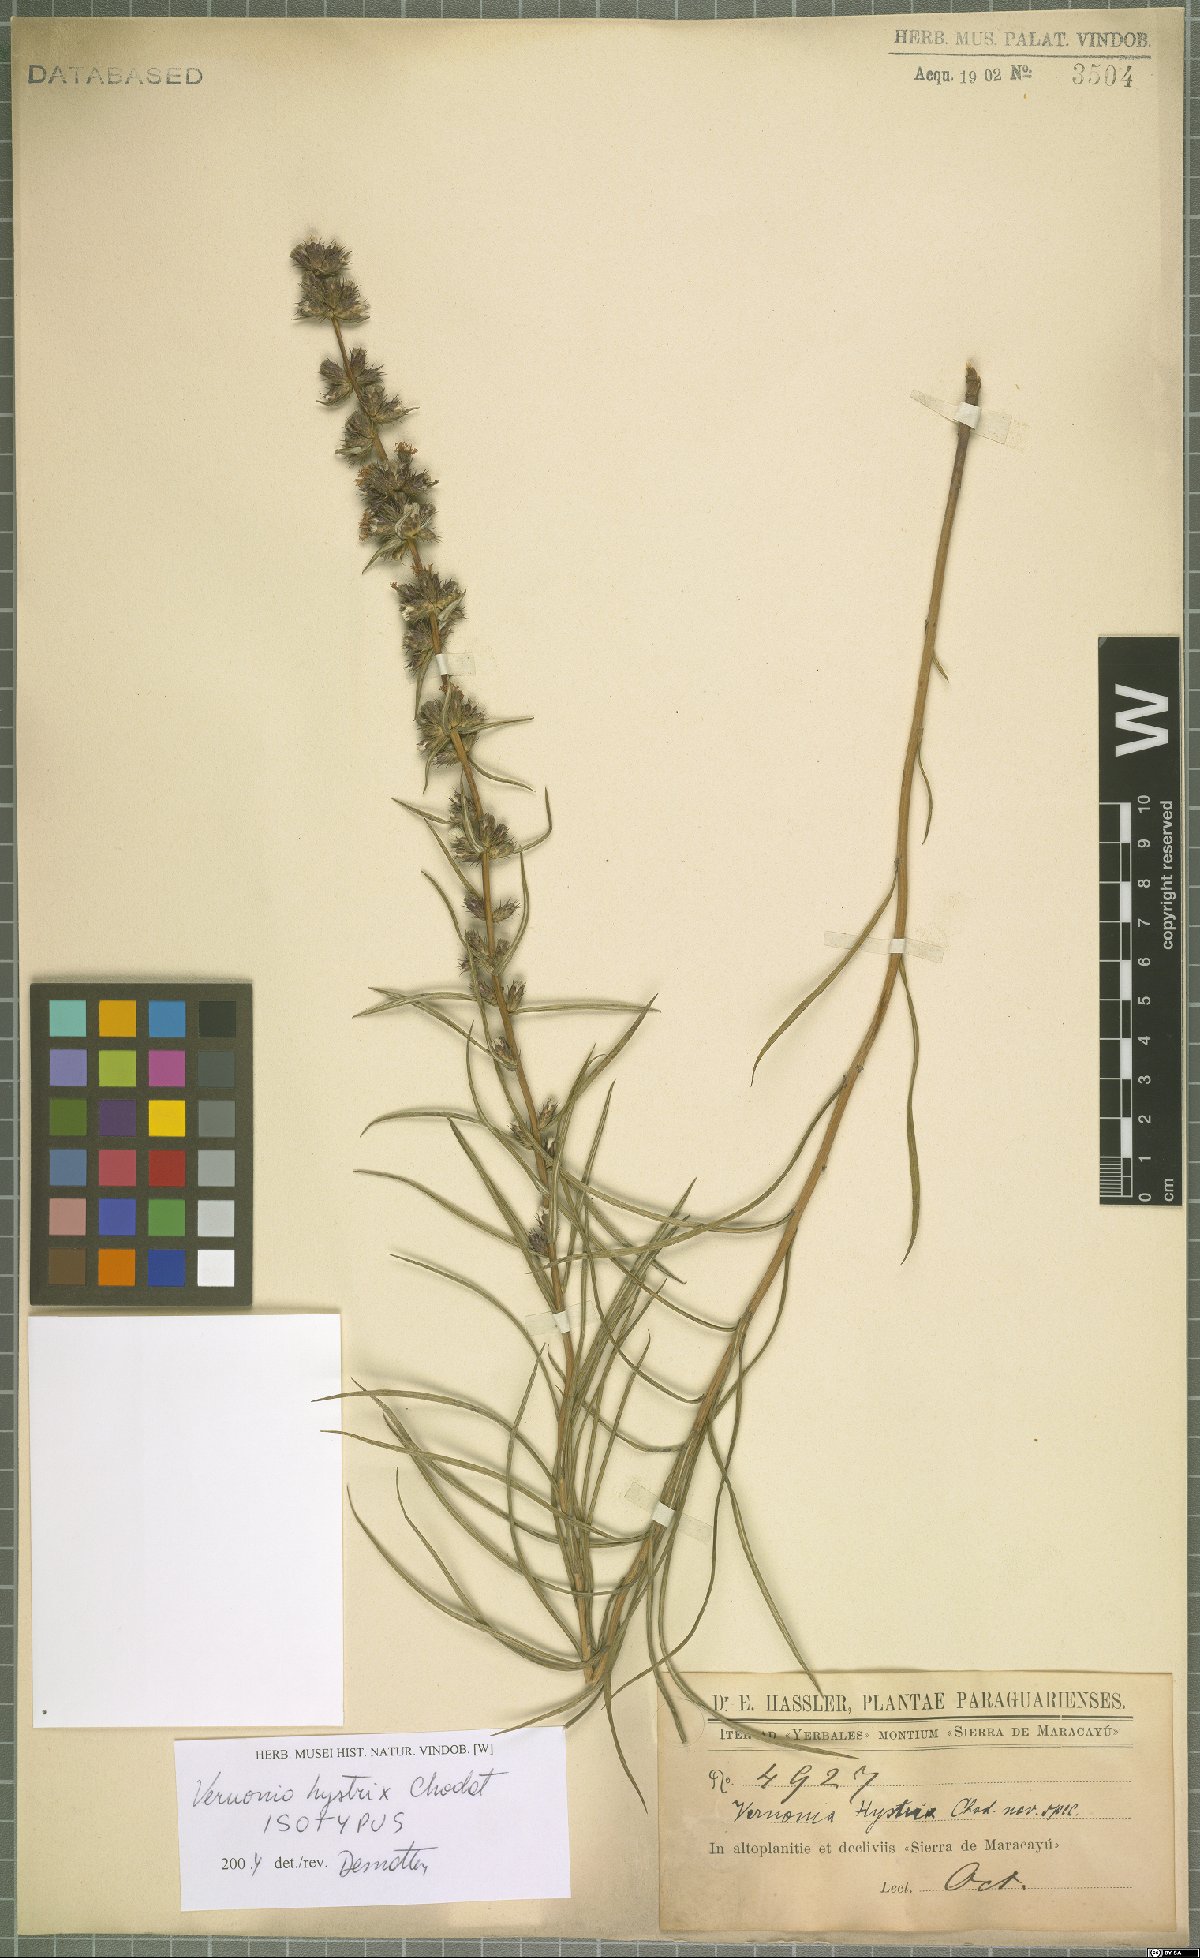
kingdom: Plantae
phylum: Tracheophyta
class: Magnoliopsida
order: Asterales
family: Asteraceae
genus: Stenocephalum
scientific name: Stenocephalum hystrix
